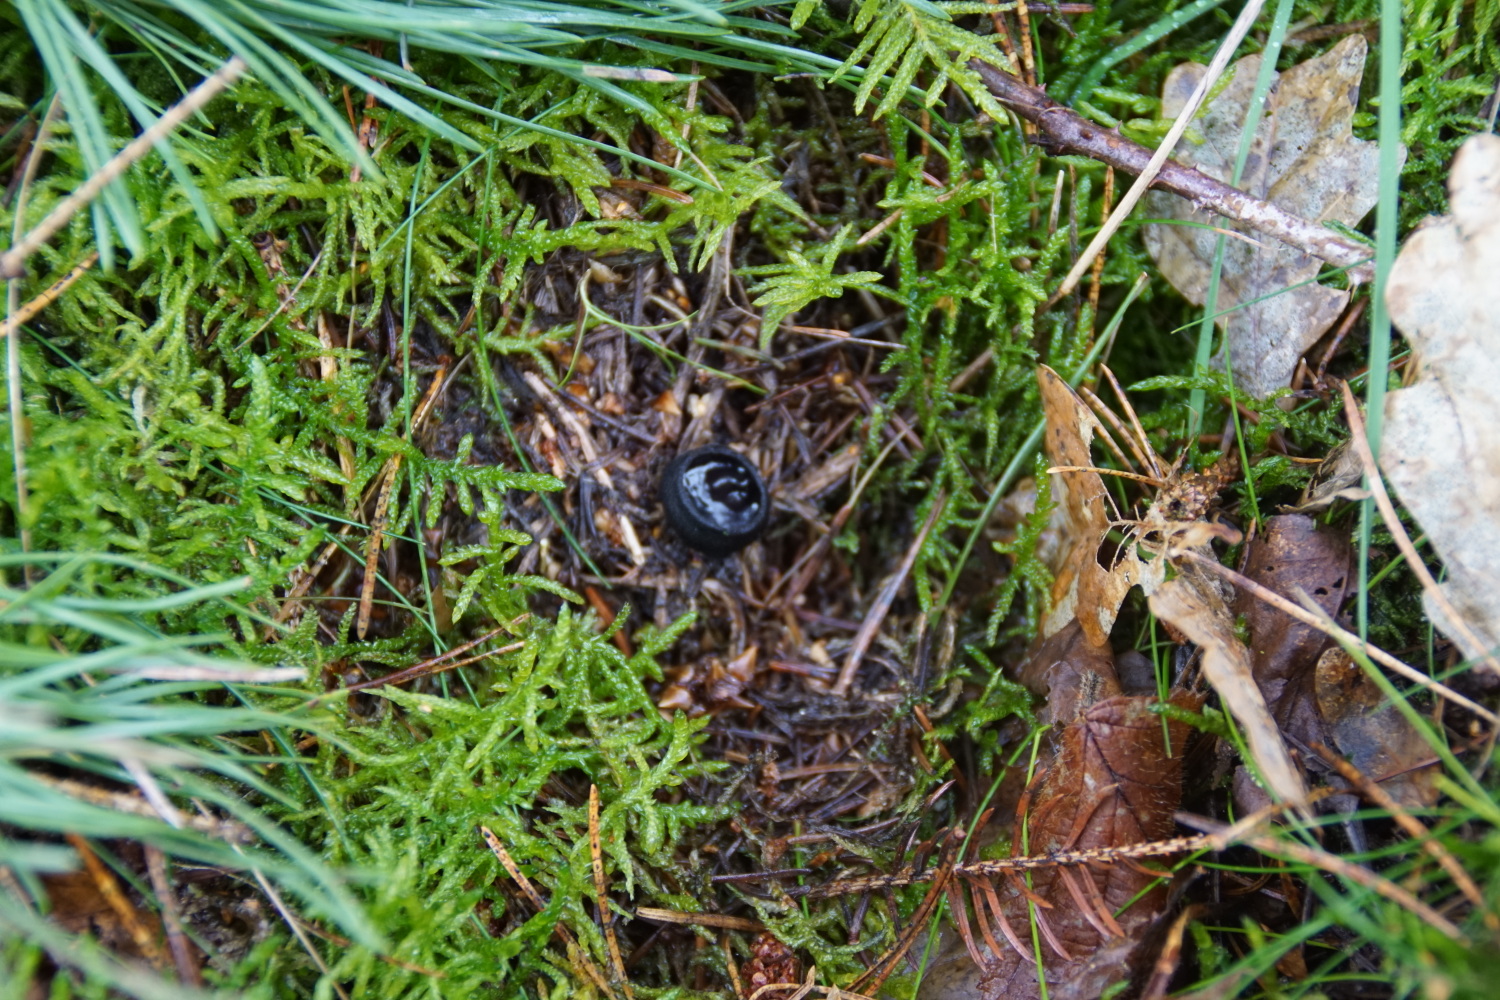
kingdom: Fungi
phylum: Ascomycota
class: Pezizomycetes
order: Pezizales
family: Sarcosomataceae
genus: Pseudoplectania
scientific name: Pseudoplectania nigrella
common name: almindelig sortbæger
